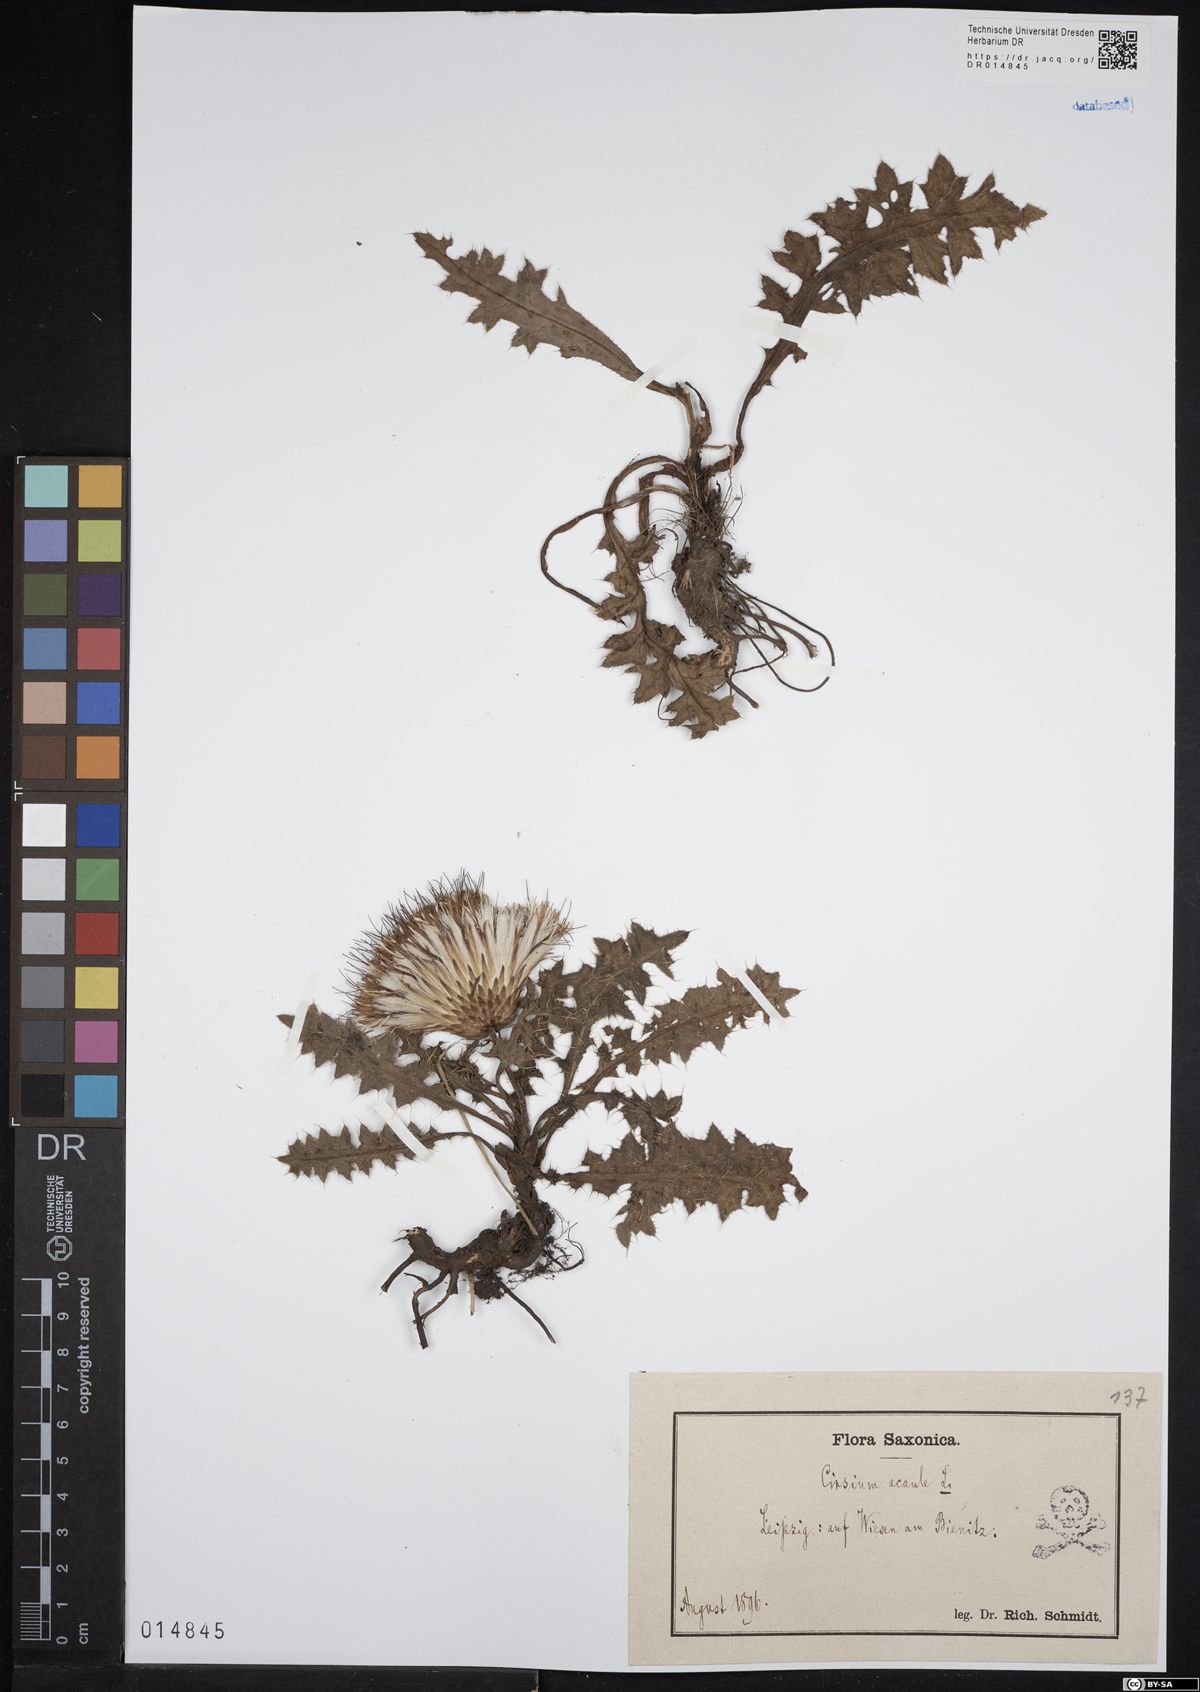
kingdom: Plantae
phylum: Tracheophyta
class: Magnoliopsida
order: Asterales
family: Asteraceae
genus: Cirsium
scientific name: Cirsium acaule
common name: Dwarf thistle
